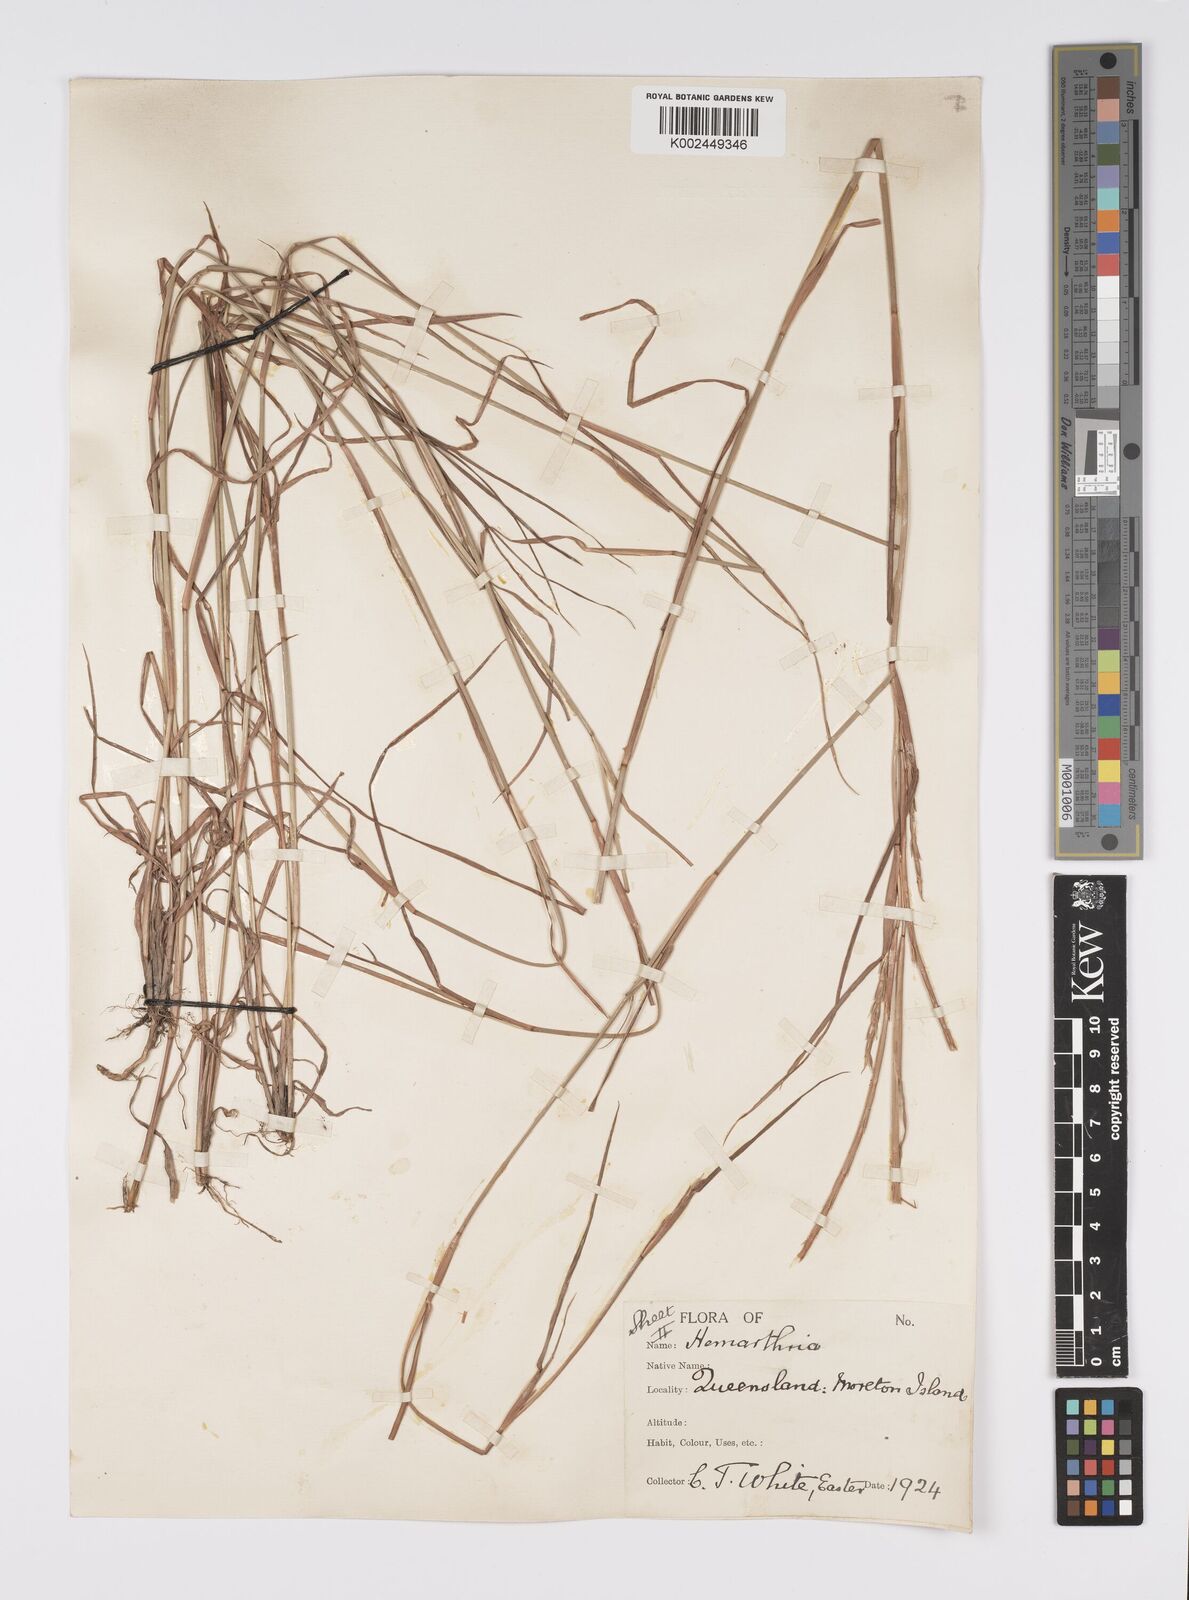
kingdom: Plantae
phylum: Tracheophyta
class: Liliopsida
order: Poales
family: Poaceae
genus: Hemarthria
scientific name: Hemarthria uncinata
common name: Matgrass
